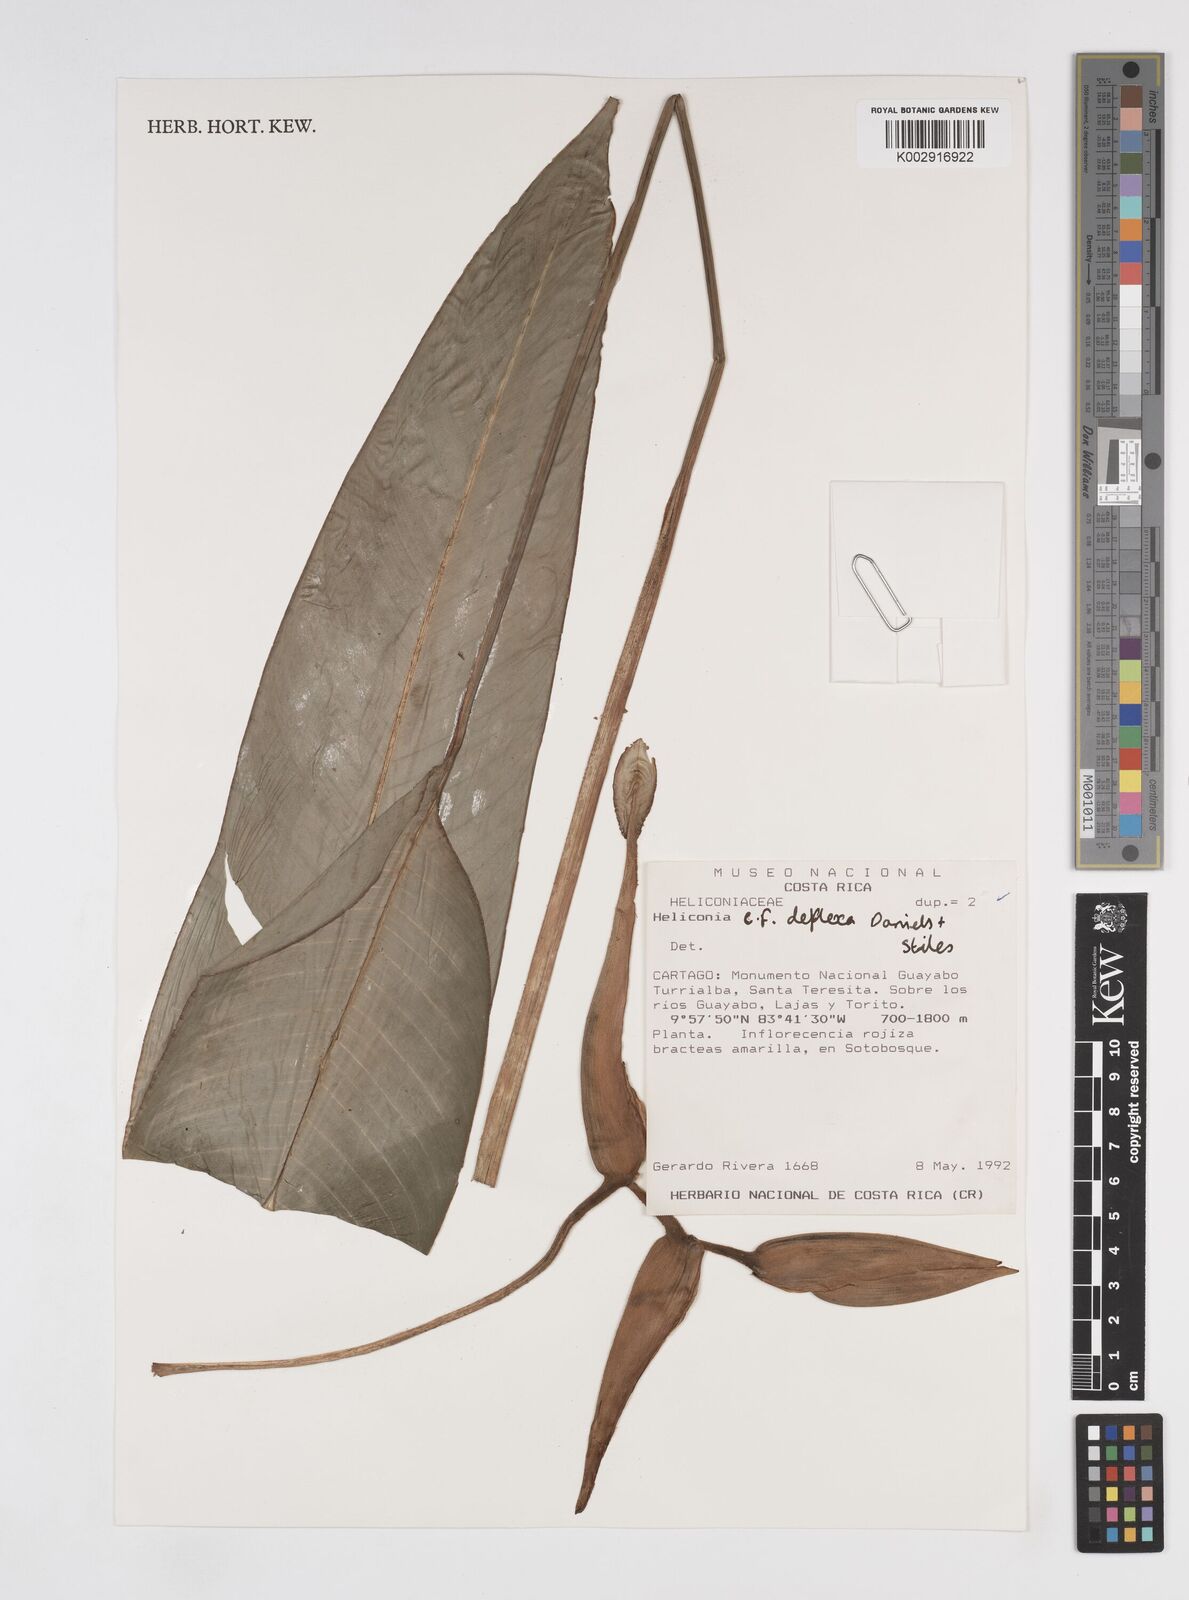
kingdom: Plantae
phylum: Tracheophyta
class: Liliopsida
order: Zingiberales
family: Heliconiaceae
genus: Heliconia
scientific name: Heliconia vaginalis
